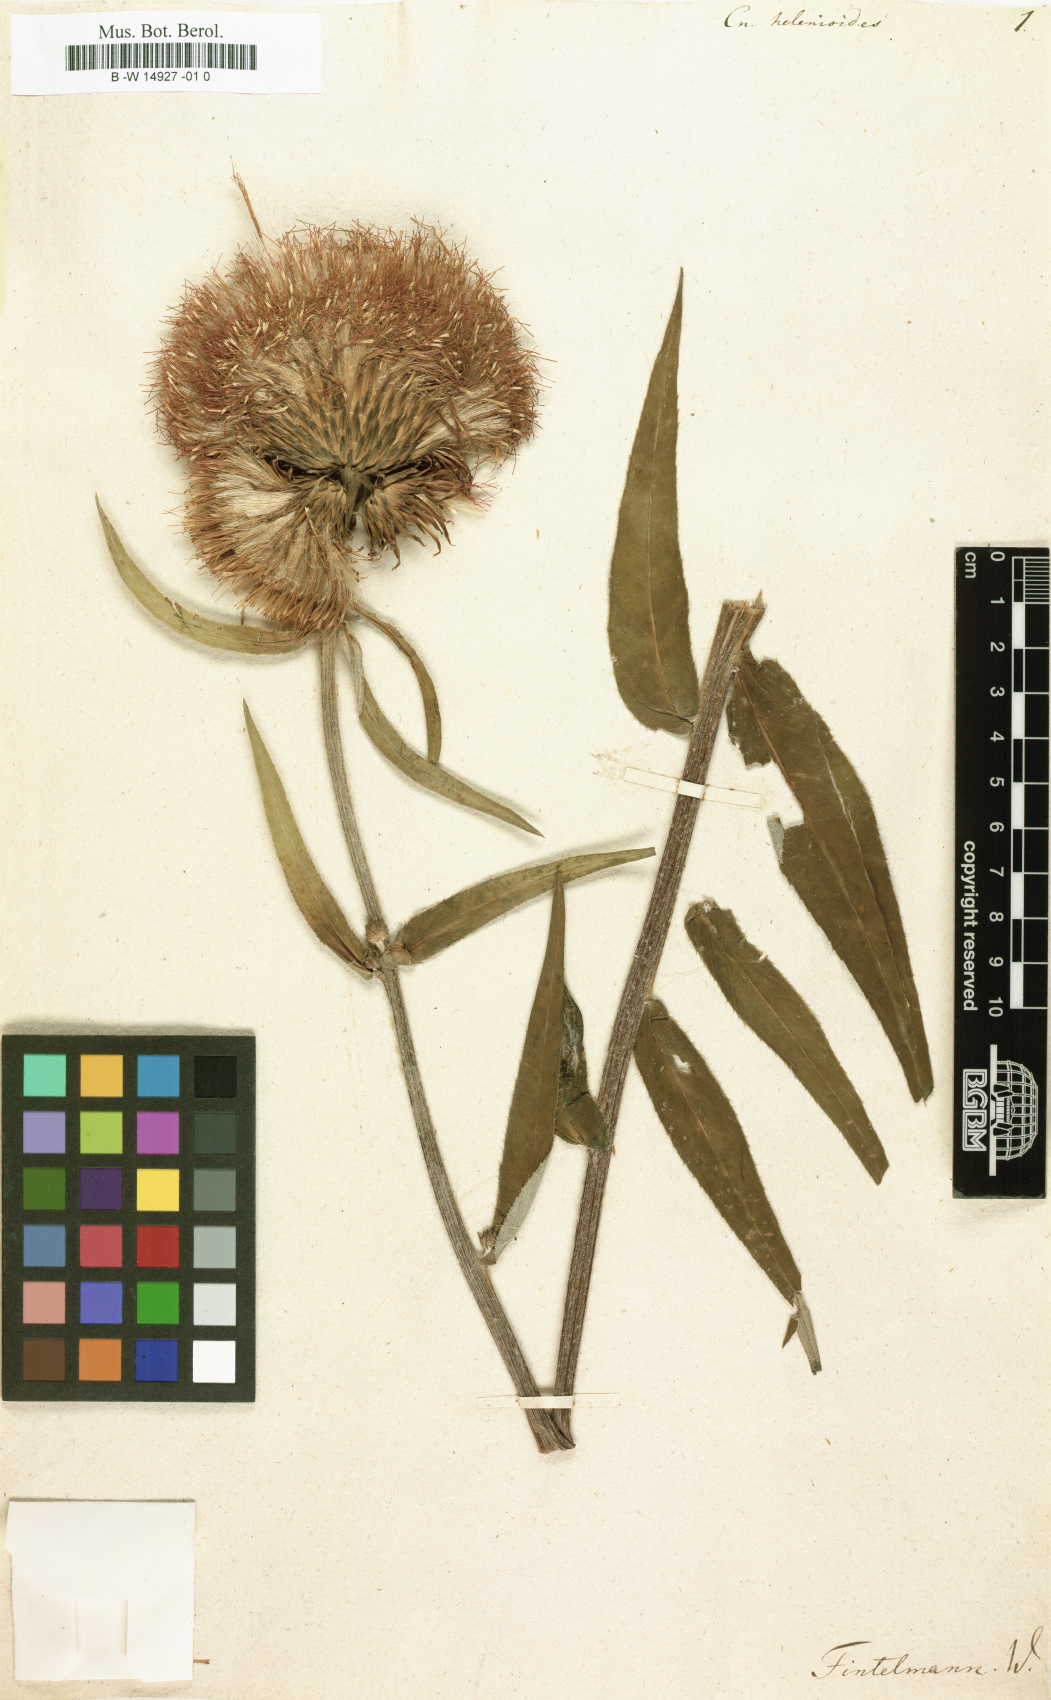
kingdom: Plantae
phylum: Tracheophyta
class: Magnoliopsida
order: Asterales
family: Asteraceae
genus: Cirsium
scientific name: Cirsium helenioides
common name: Melancholy thistle
